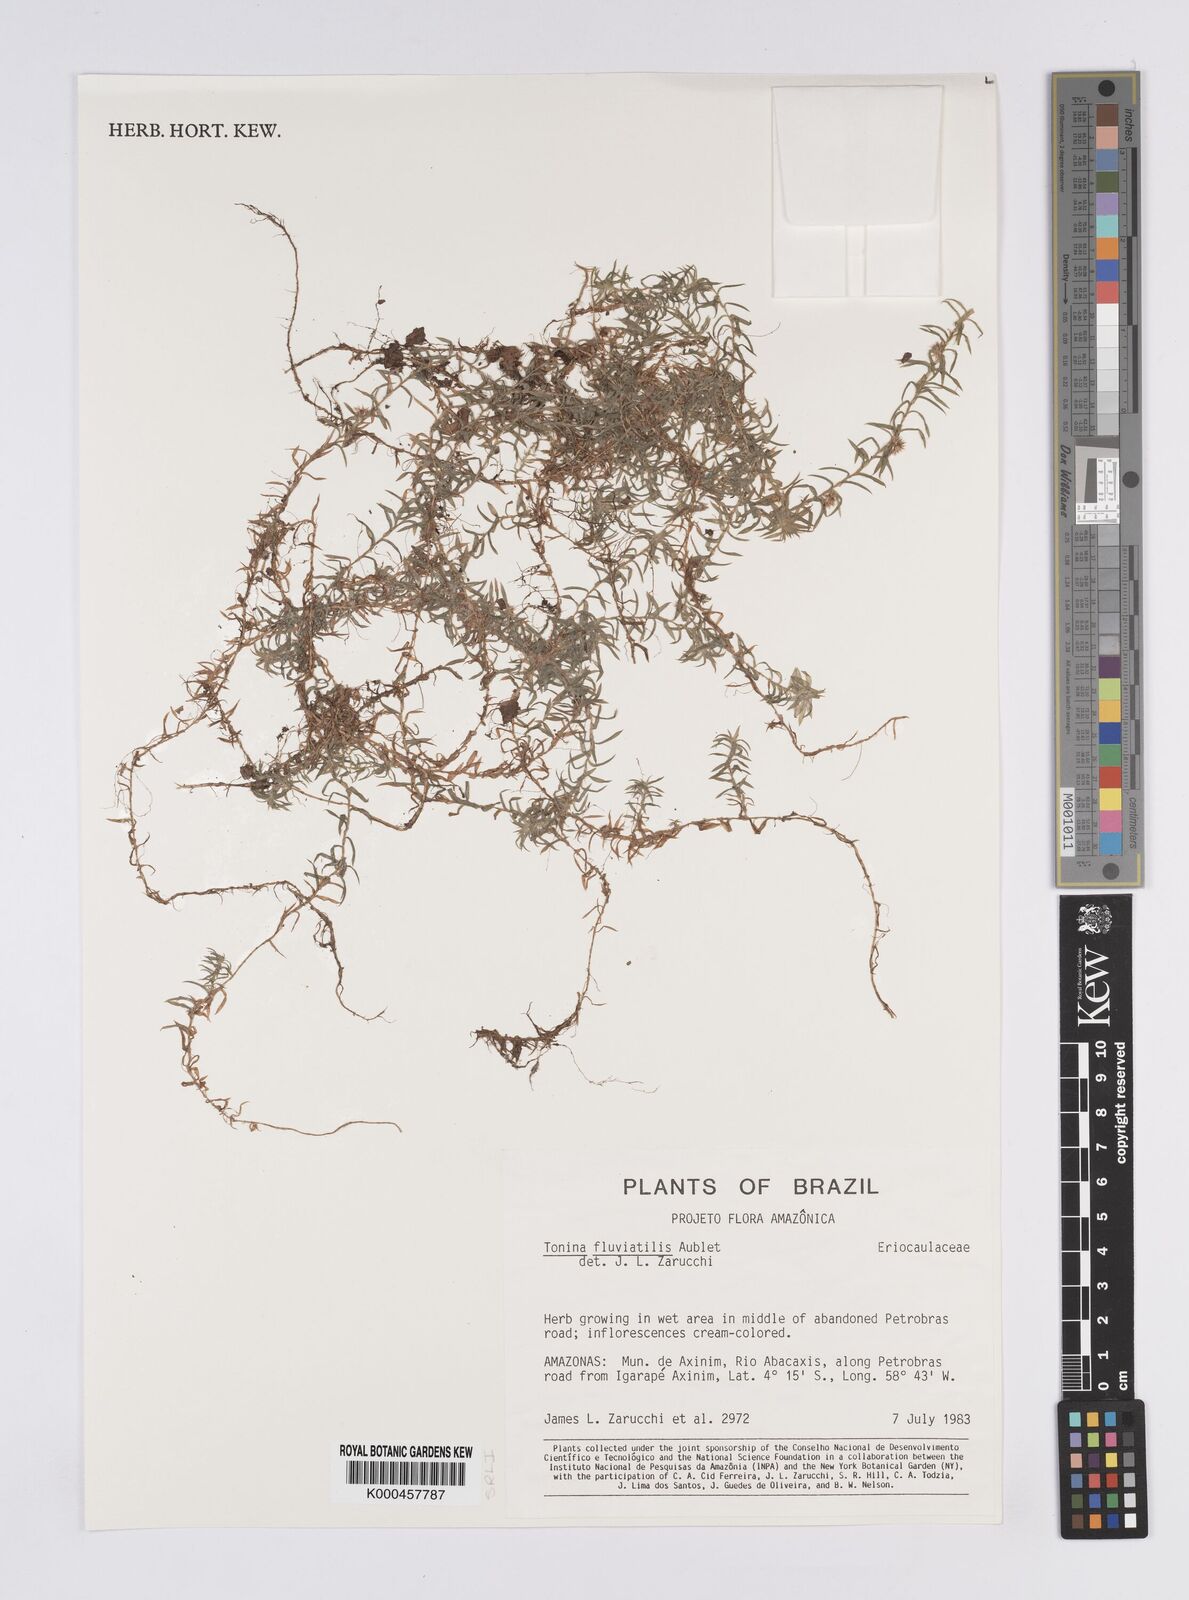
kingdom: Plantae
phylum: Tracheophyta
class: Liliopsida
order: Poales
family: Eriocaulaceae
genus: Paepalanthus
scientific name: Paepalanthus fluviatilis
